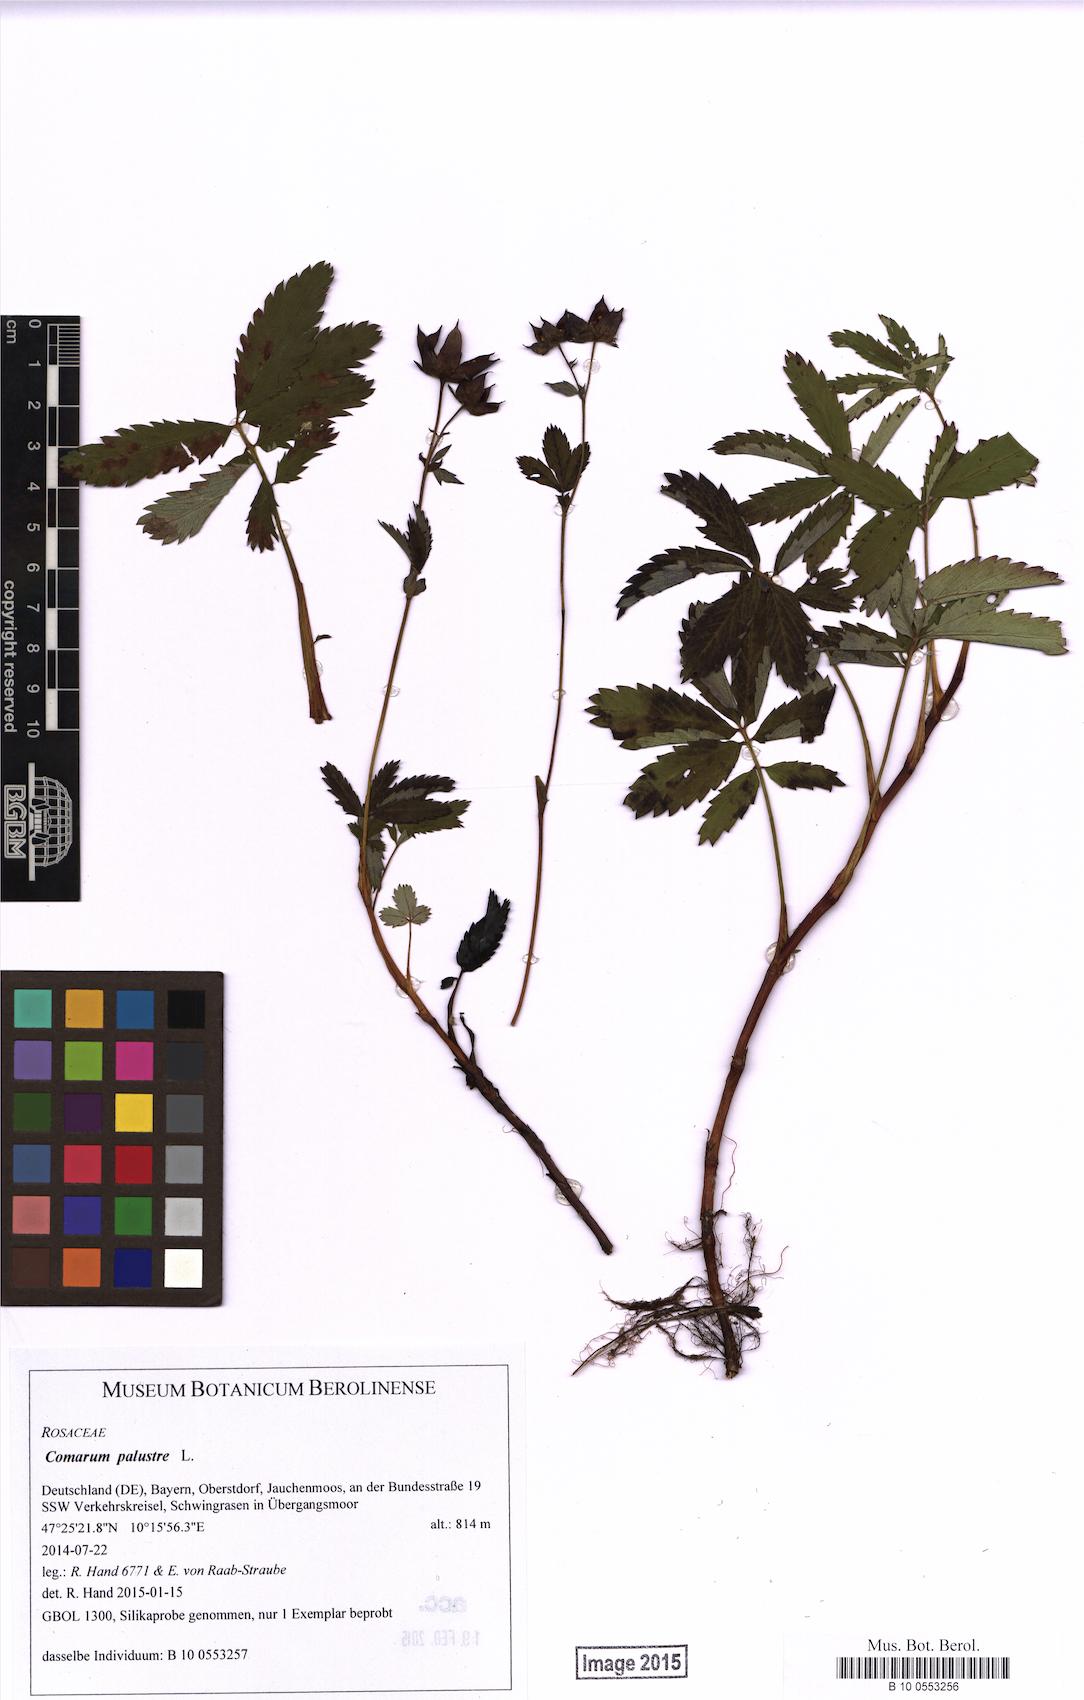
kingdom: Plantae
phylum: Tracheophyta
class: Magnoliopsida
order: Rosales
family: Rosaceae
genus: Comarum
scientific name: Comarum palustre
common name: Marsh cinquefoil
